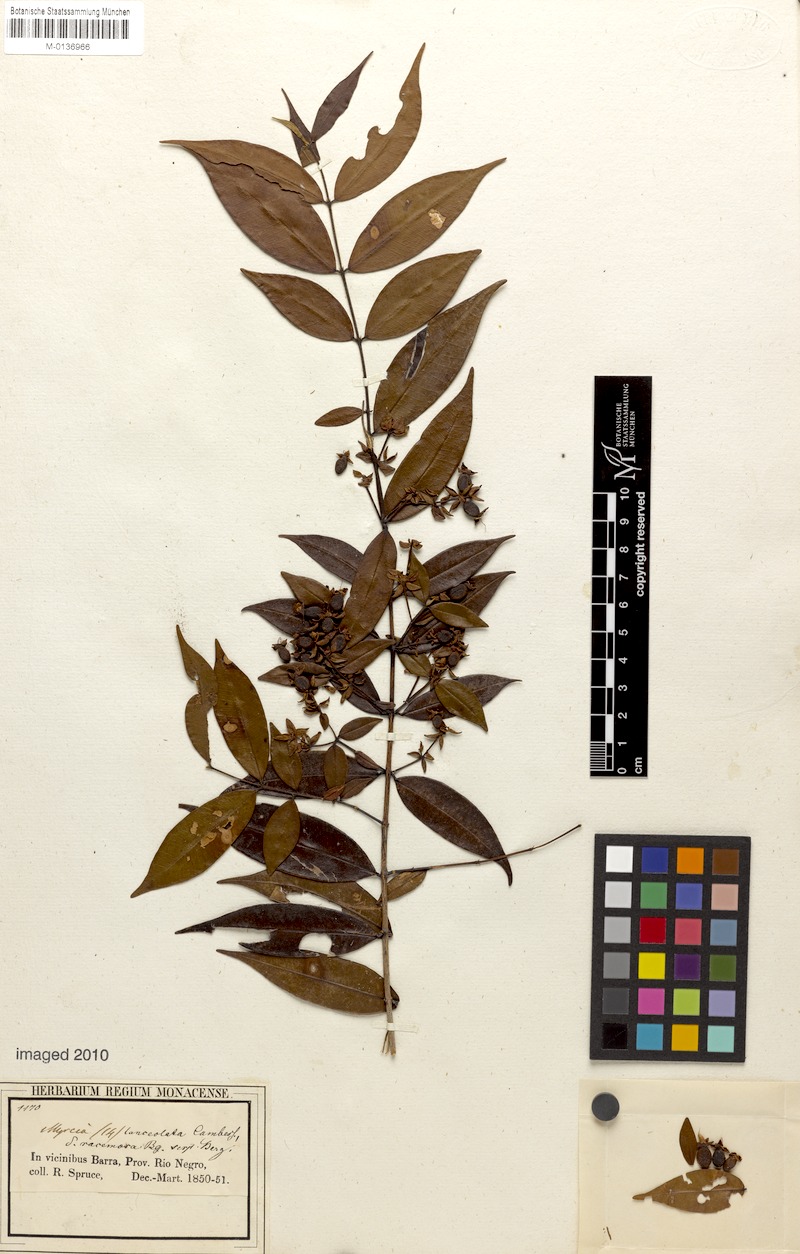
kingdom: Plantae
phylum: Tracheophyta
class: Magnoliopsida
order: Myrtales
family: Myrtaceae
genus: Myrcia
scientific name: Myrcia bracteata
